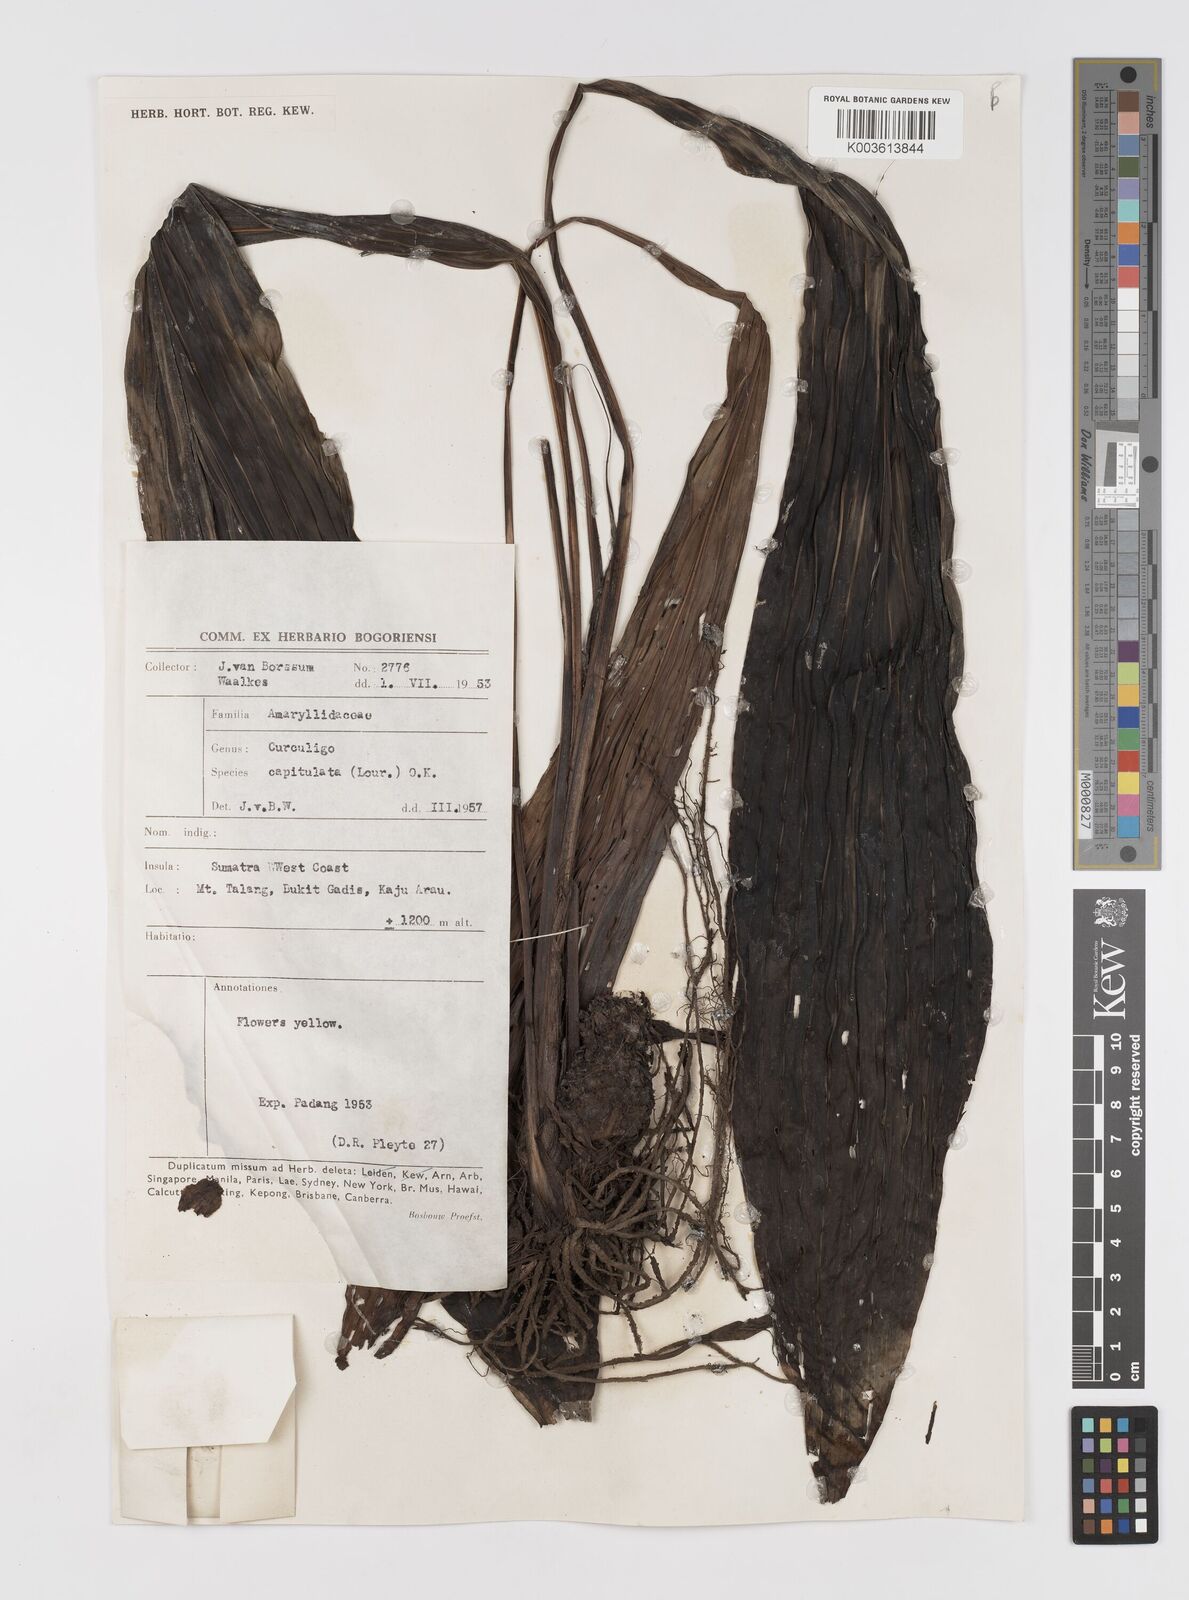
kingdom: Plantae
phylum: Tracheophyta
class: Liliopsida
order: Asparagales
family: Hypoxidaceae
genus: Curculigo
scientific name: Curculigo latifolia
